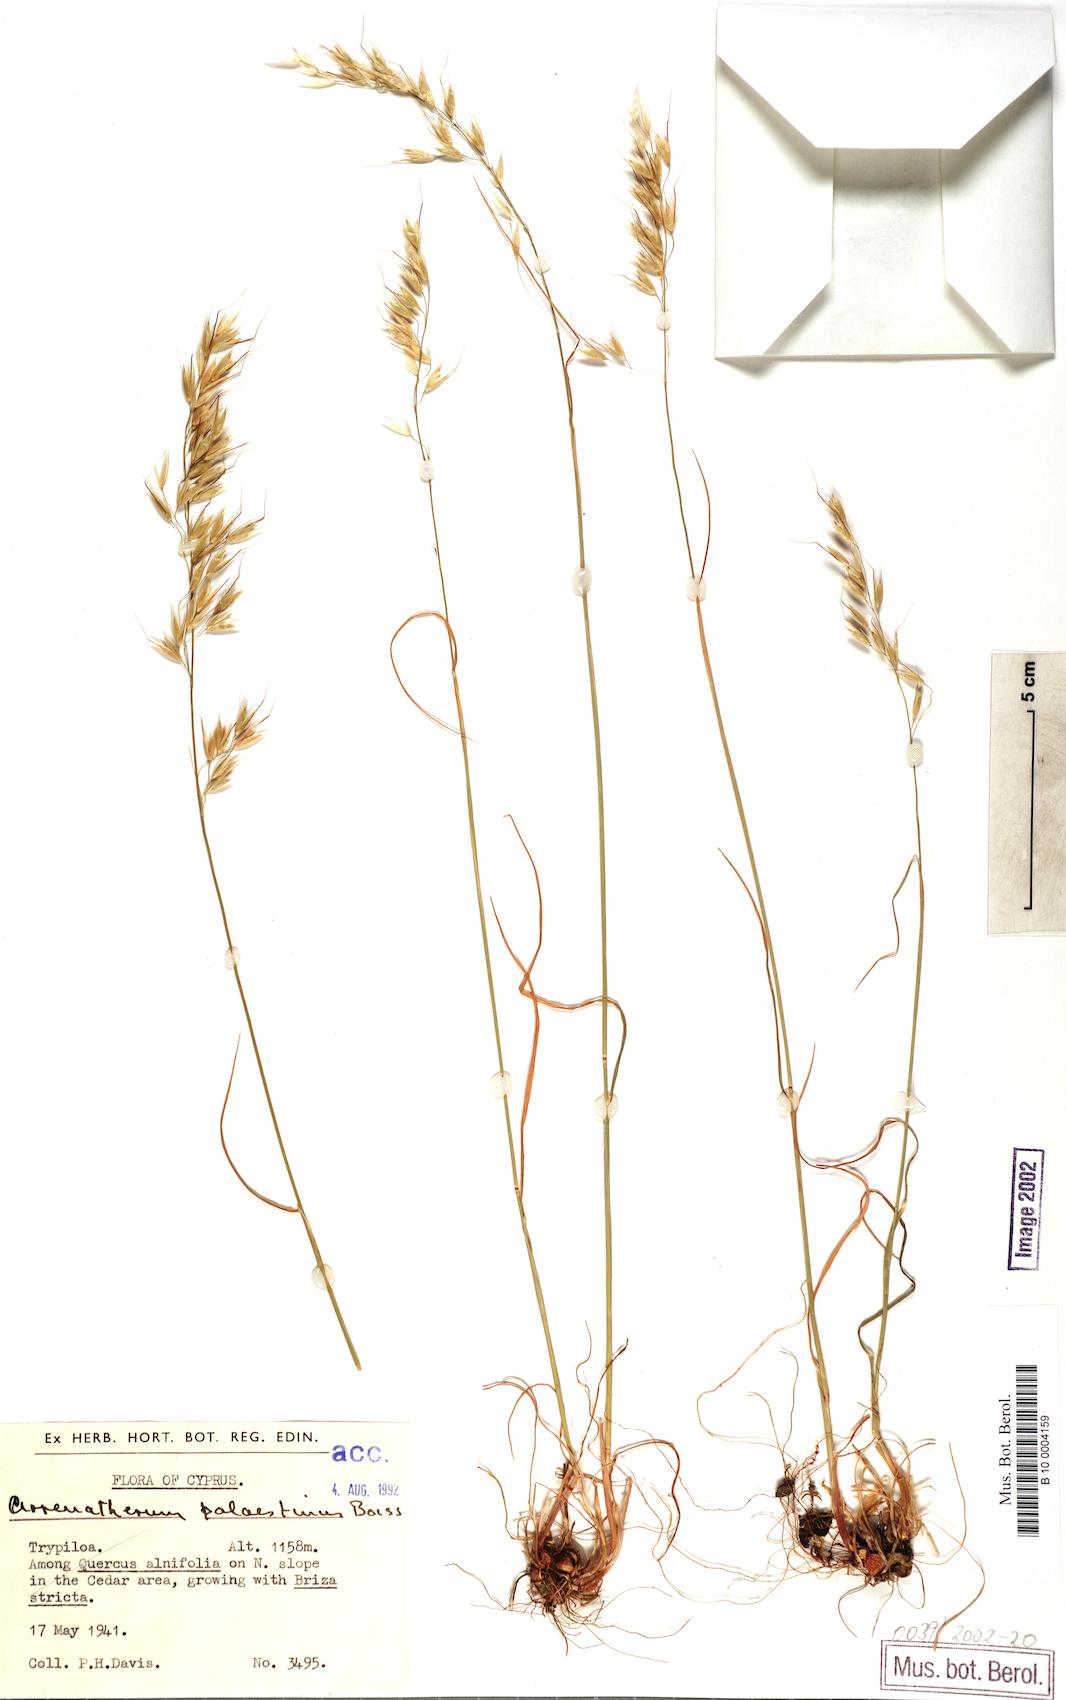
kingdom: Plantae
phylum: Tracheophyta
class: Liliopsida
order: Poales
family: Poaceae
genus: Arrhenatherum
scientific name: Arrhenatherum palaestinum
